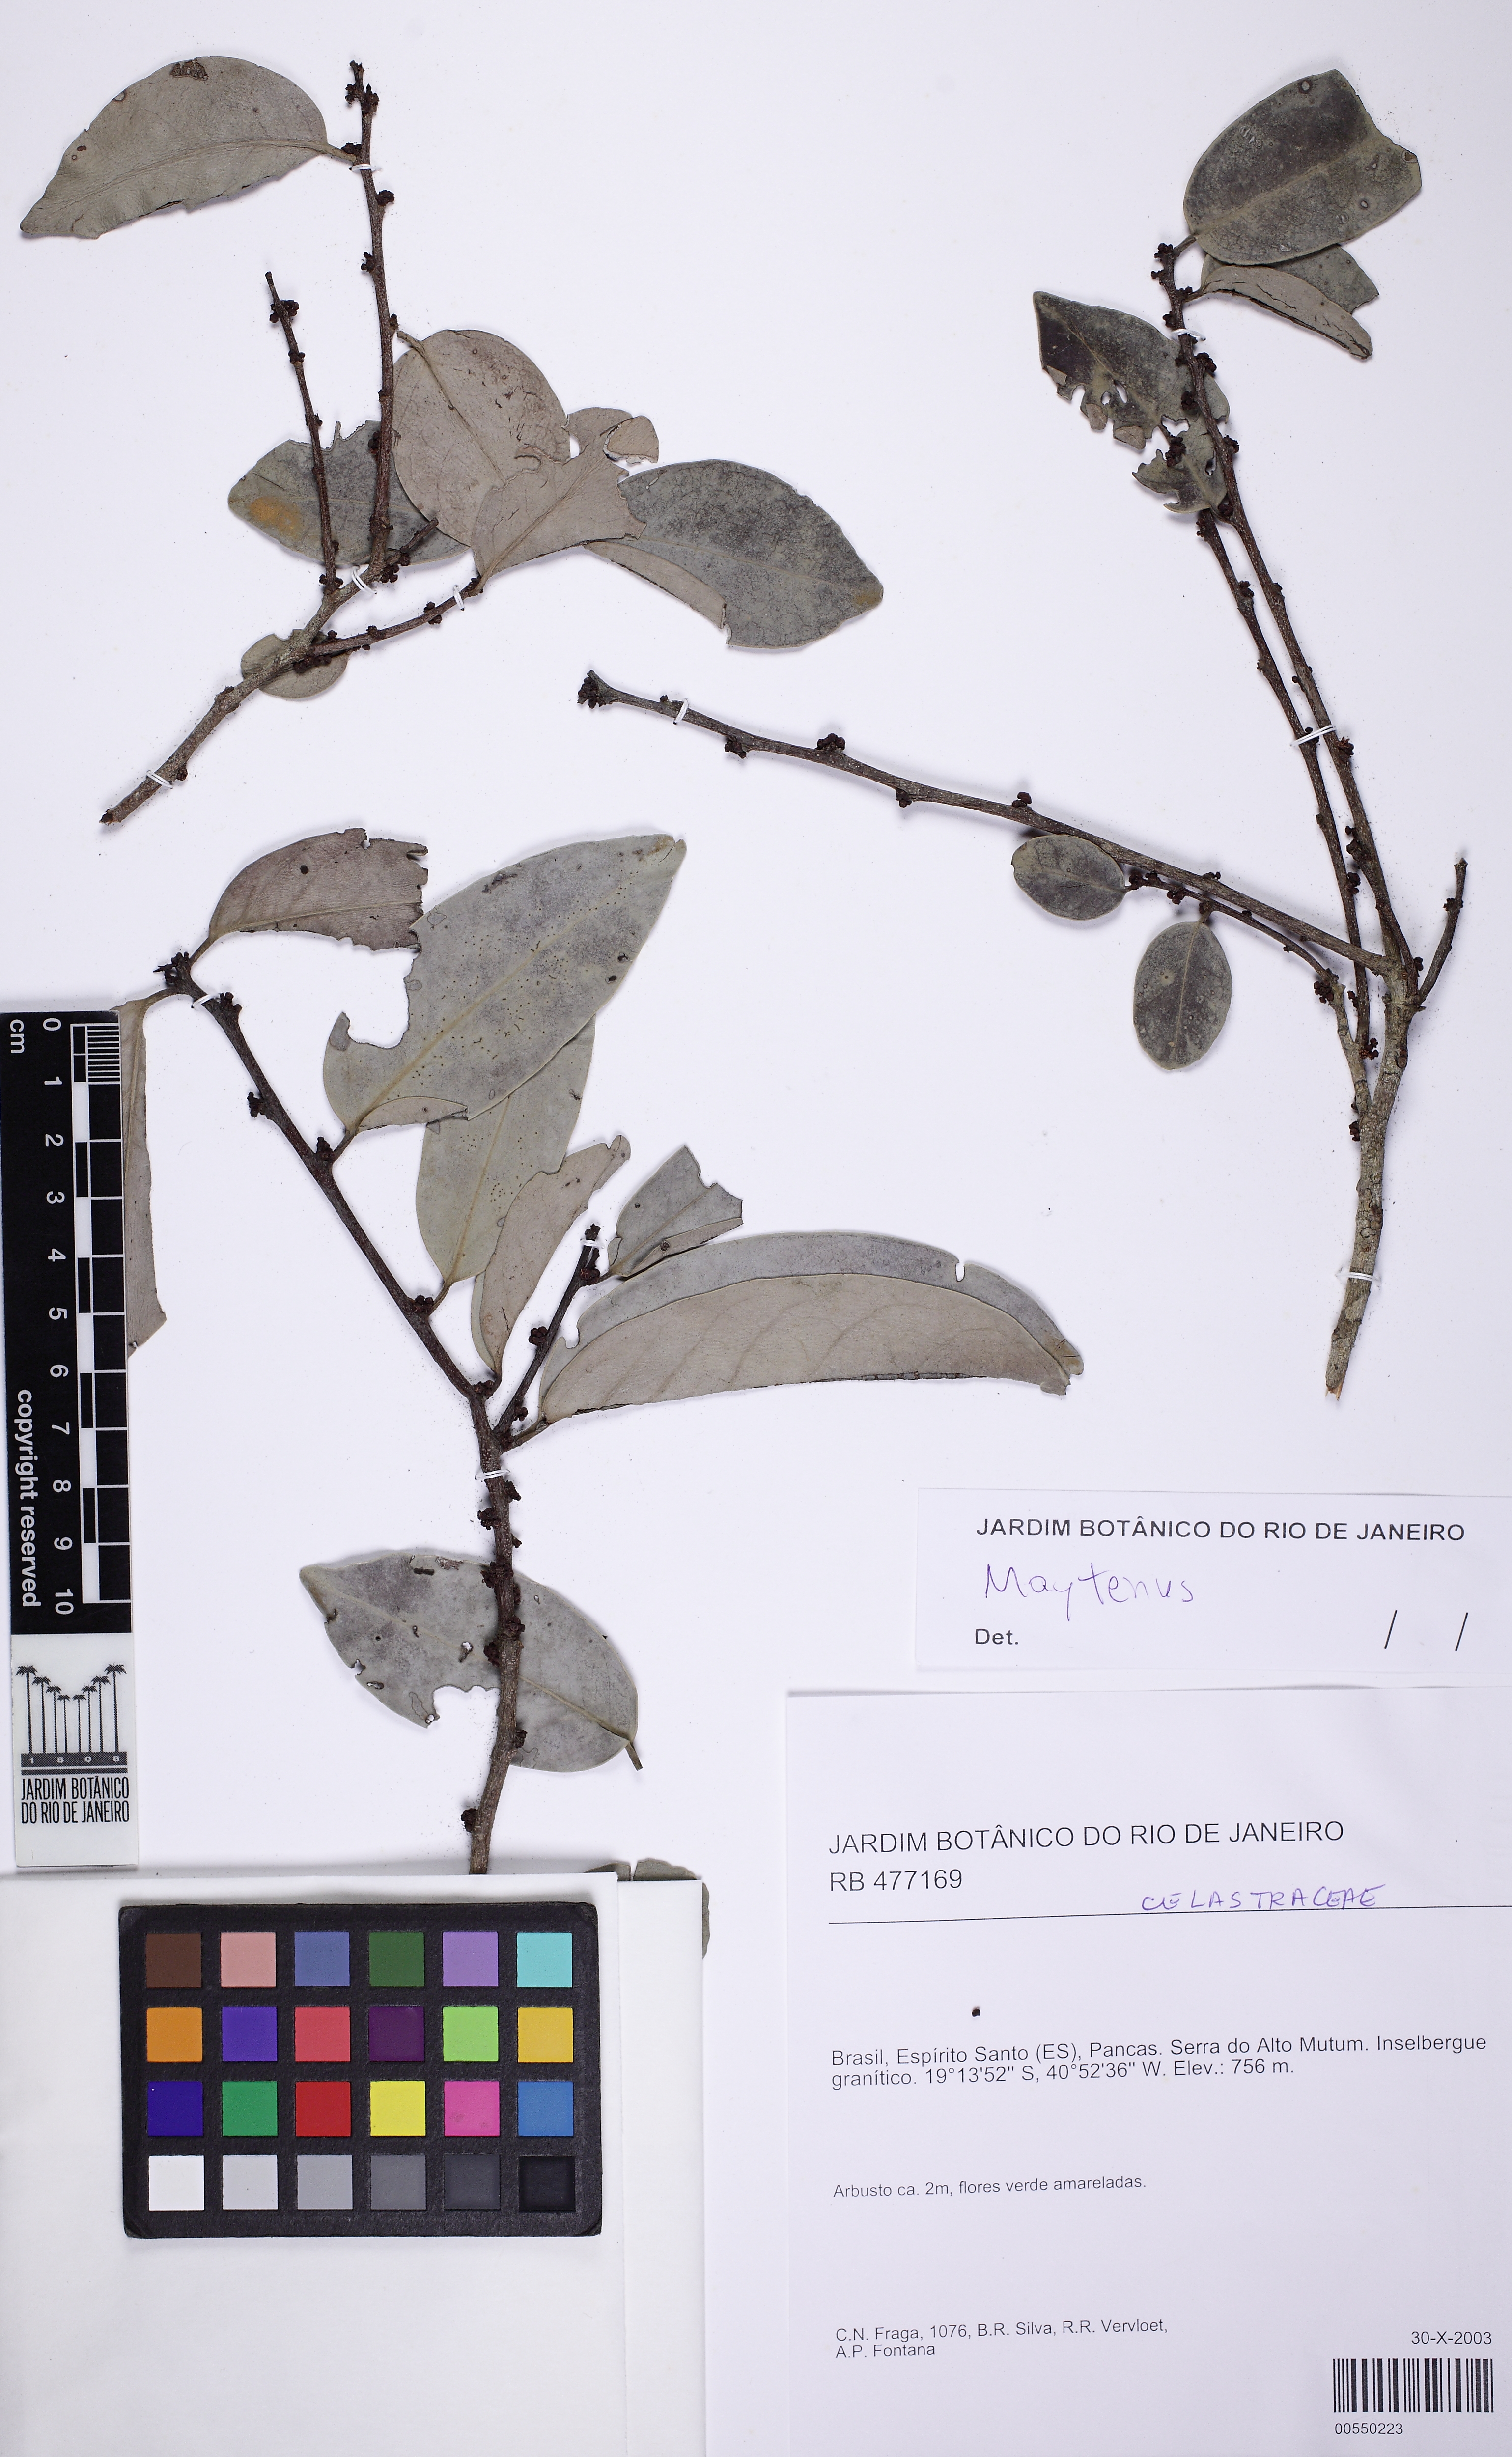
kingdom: Plantae
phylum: Tracheophyta
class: Magnoliopsida
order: Celastrales
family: Celastraceae
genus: Monteverdia
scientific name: Monteverdia distichophylla
